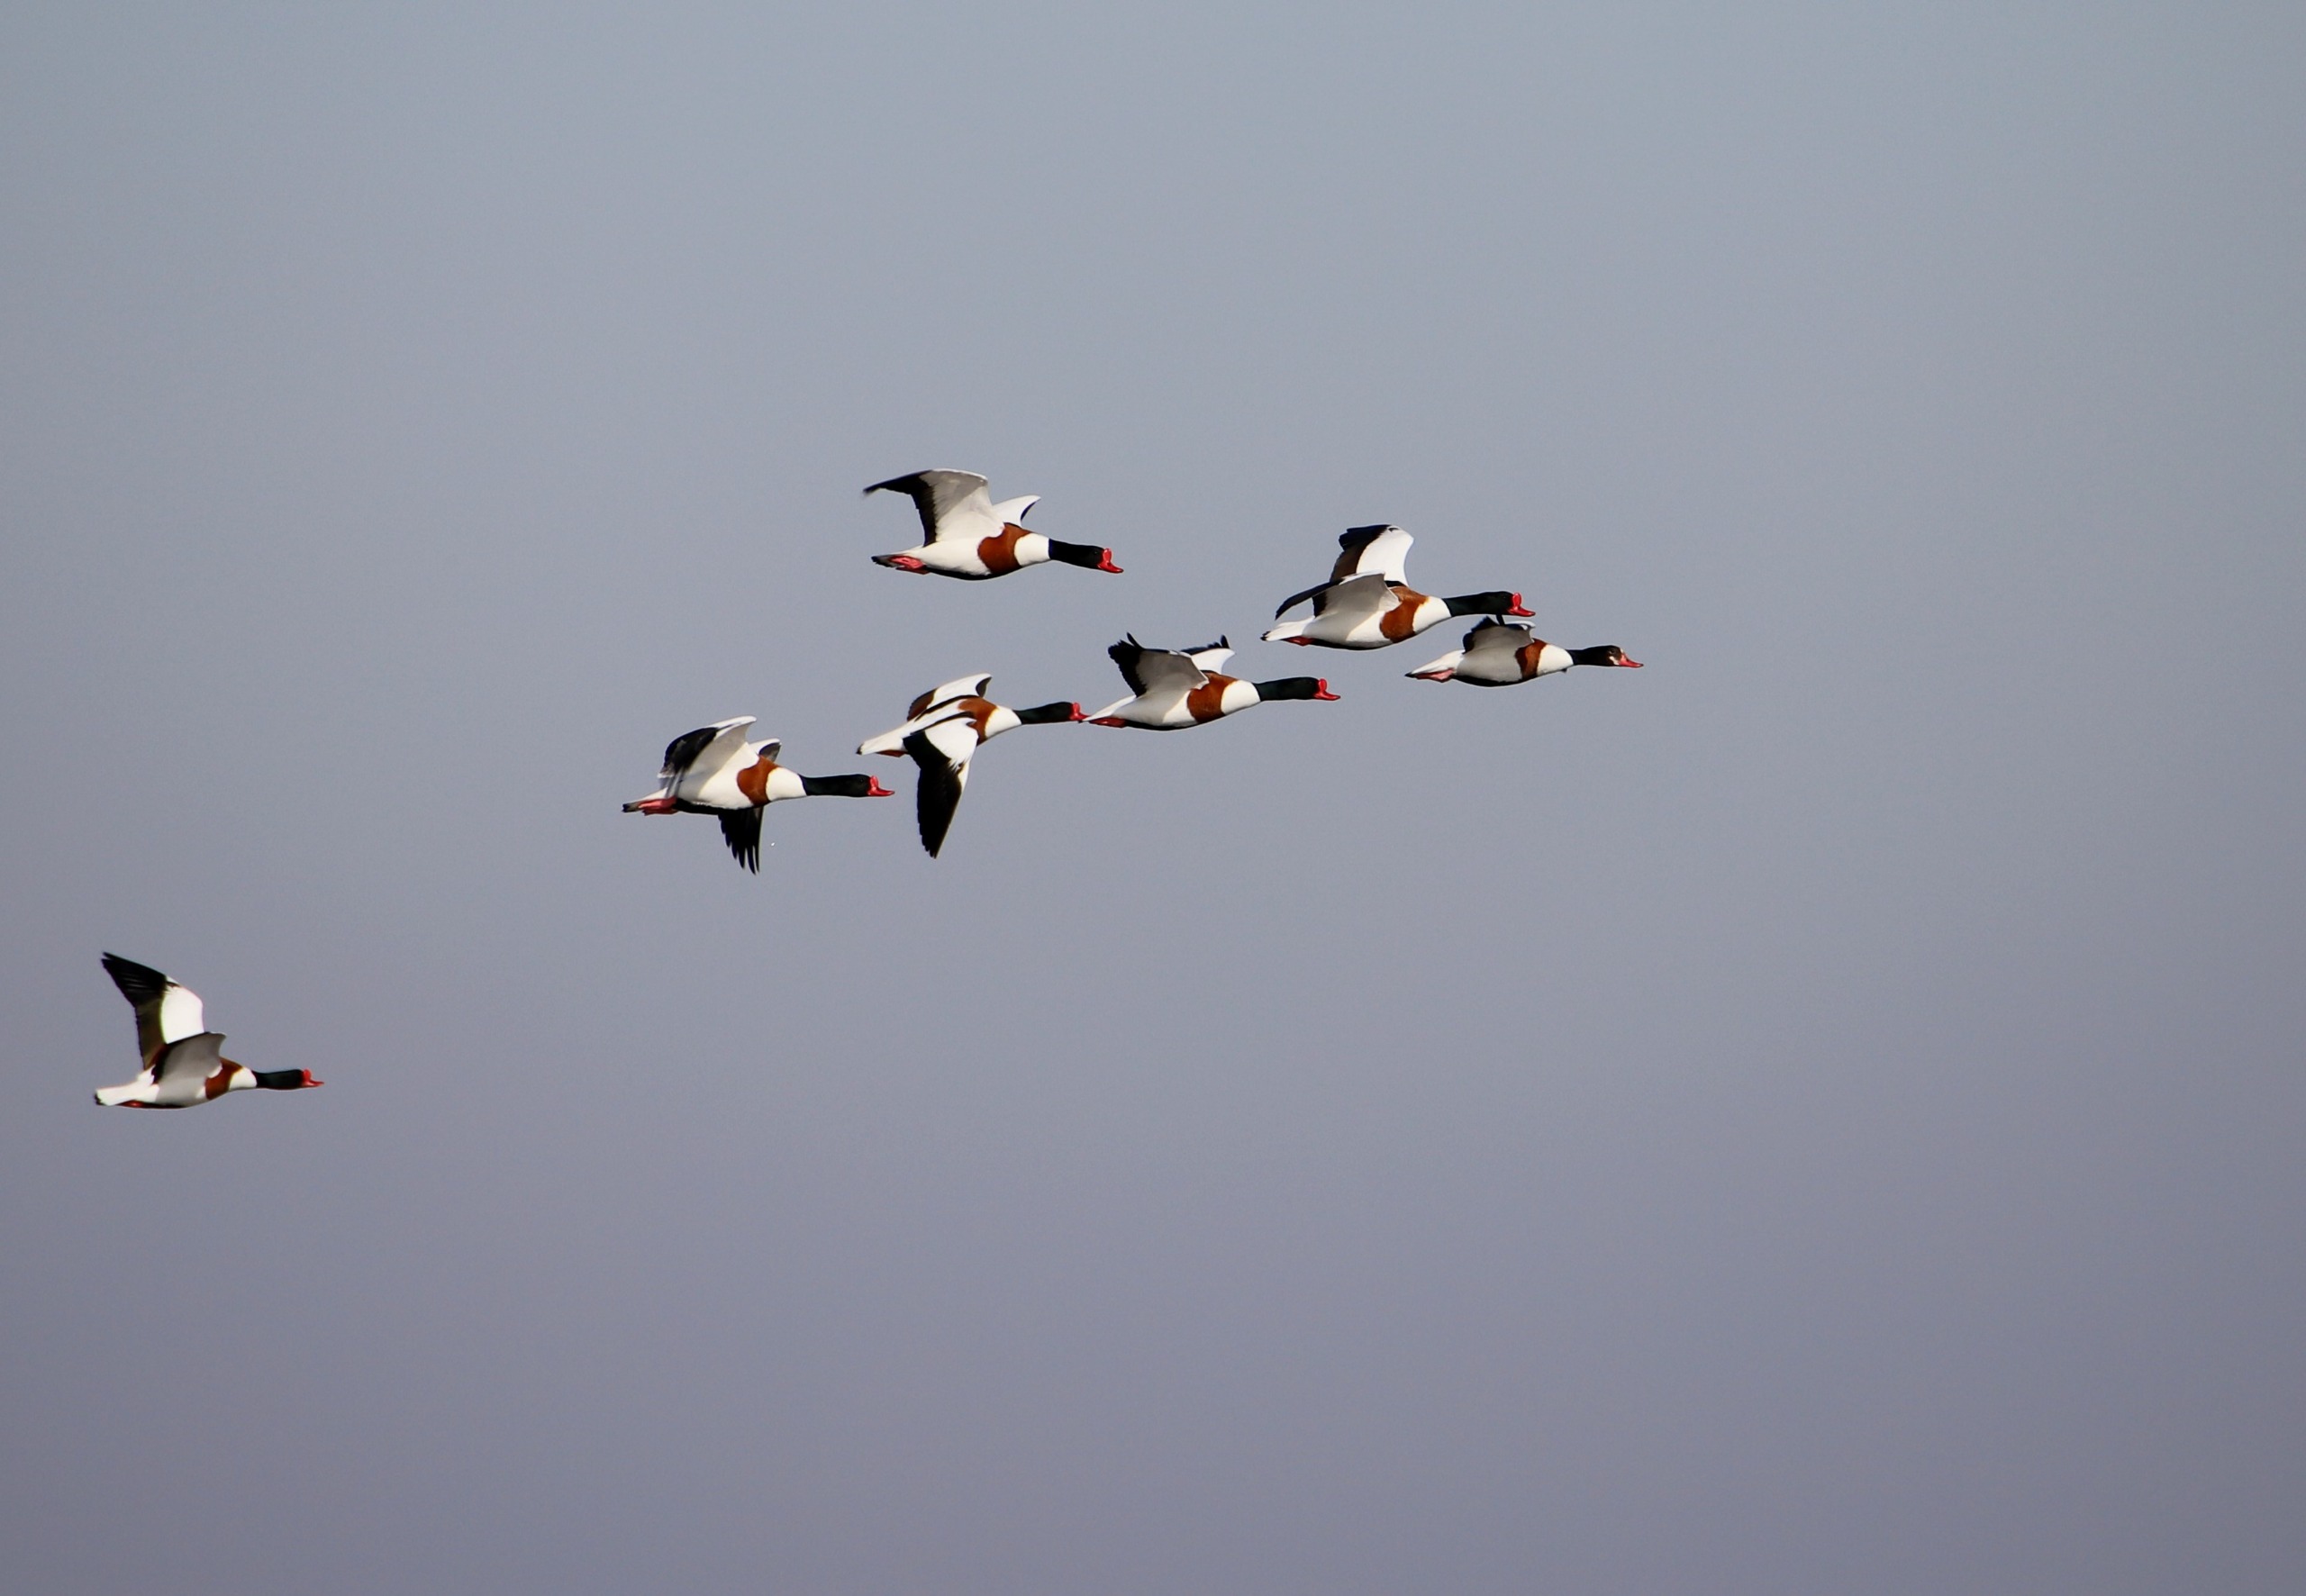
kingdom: Animalia
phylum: Chordata
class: Aves
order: Anseriformes
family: Anatidae
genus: Tadorna
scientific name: Tadorna tadorna
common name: Gravand
